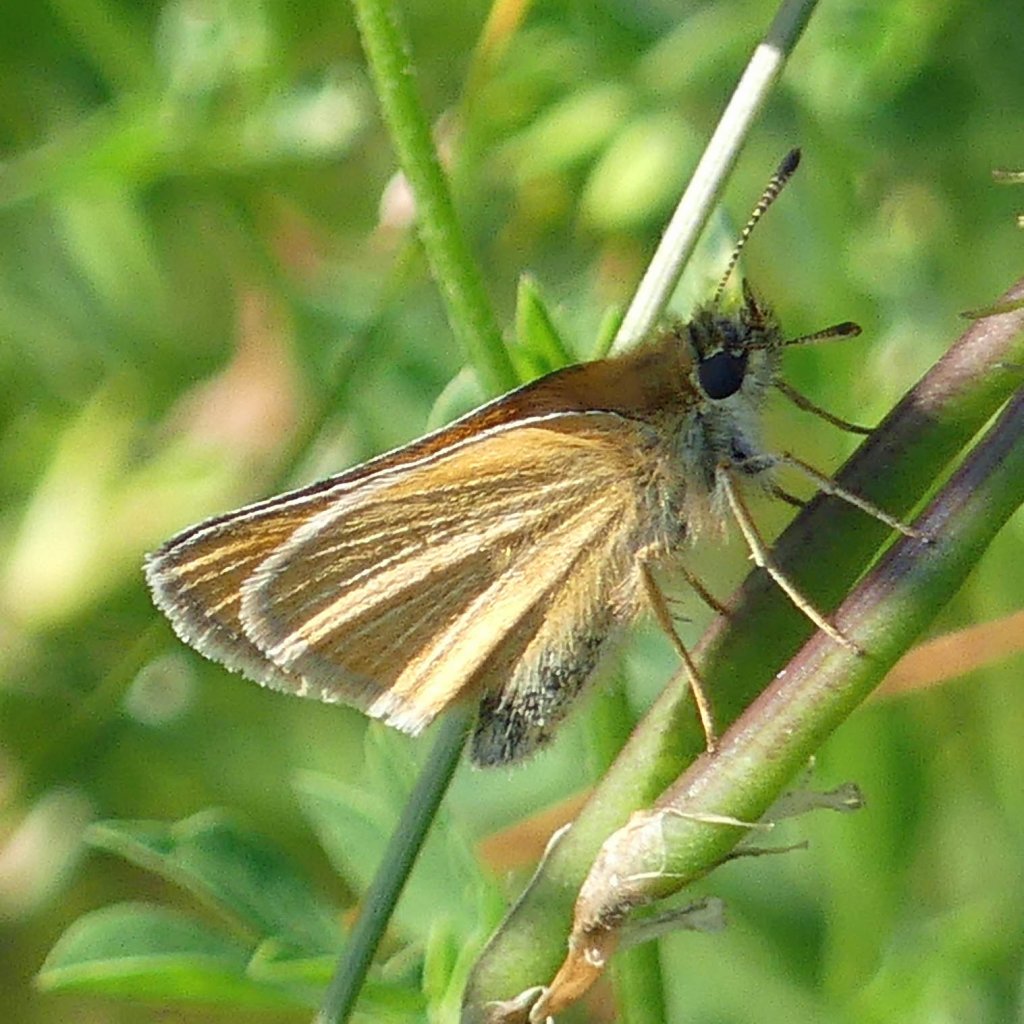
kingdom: Animalia
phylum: Arthropoda
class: Insecta
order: Lepidoptera
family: Hesperiidae
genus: Thymelicus
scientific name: Thymelicus lineola
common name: European Skipper
